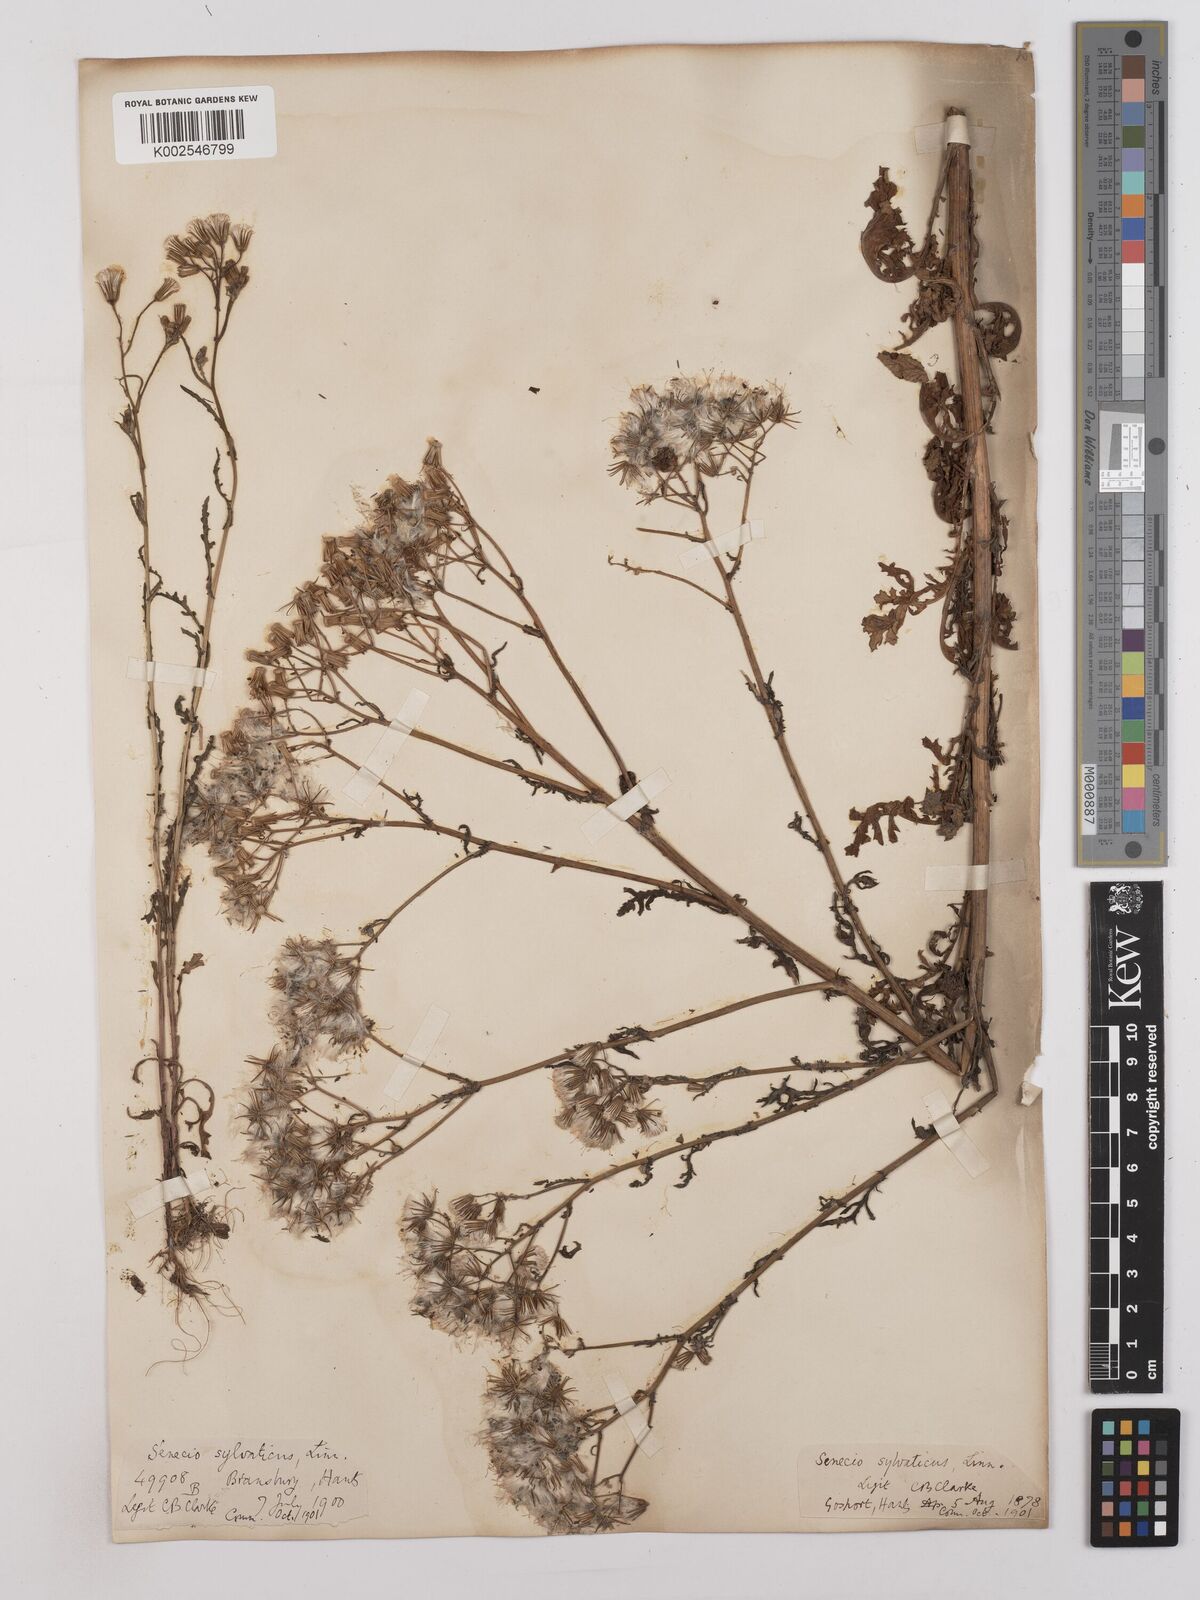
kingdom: Plantae
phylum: Tracheophyta
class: Magnoliopsida
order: Asterales
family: Asteraceae
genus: Senecio
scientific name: Senecio sylvaticus
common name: Woodland ragwort
